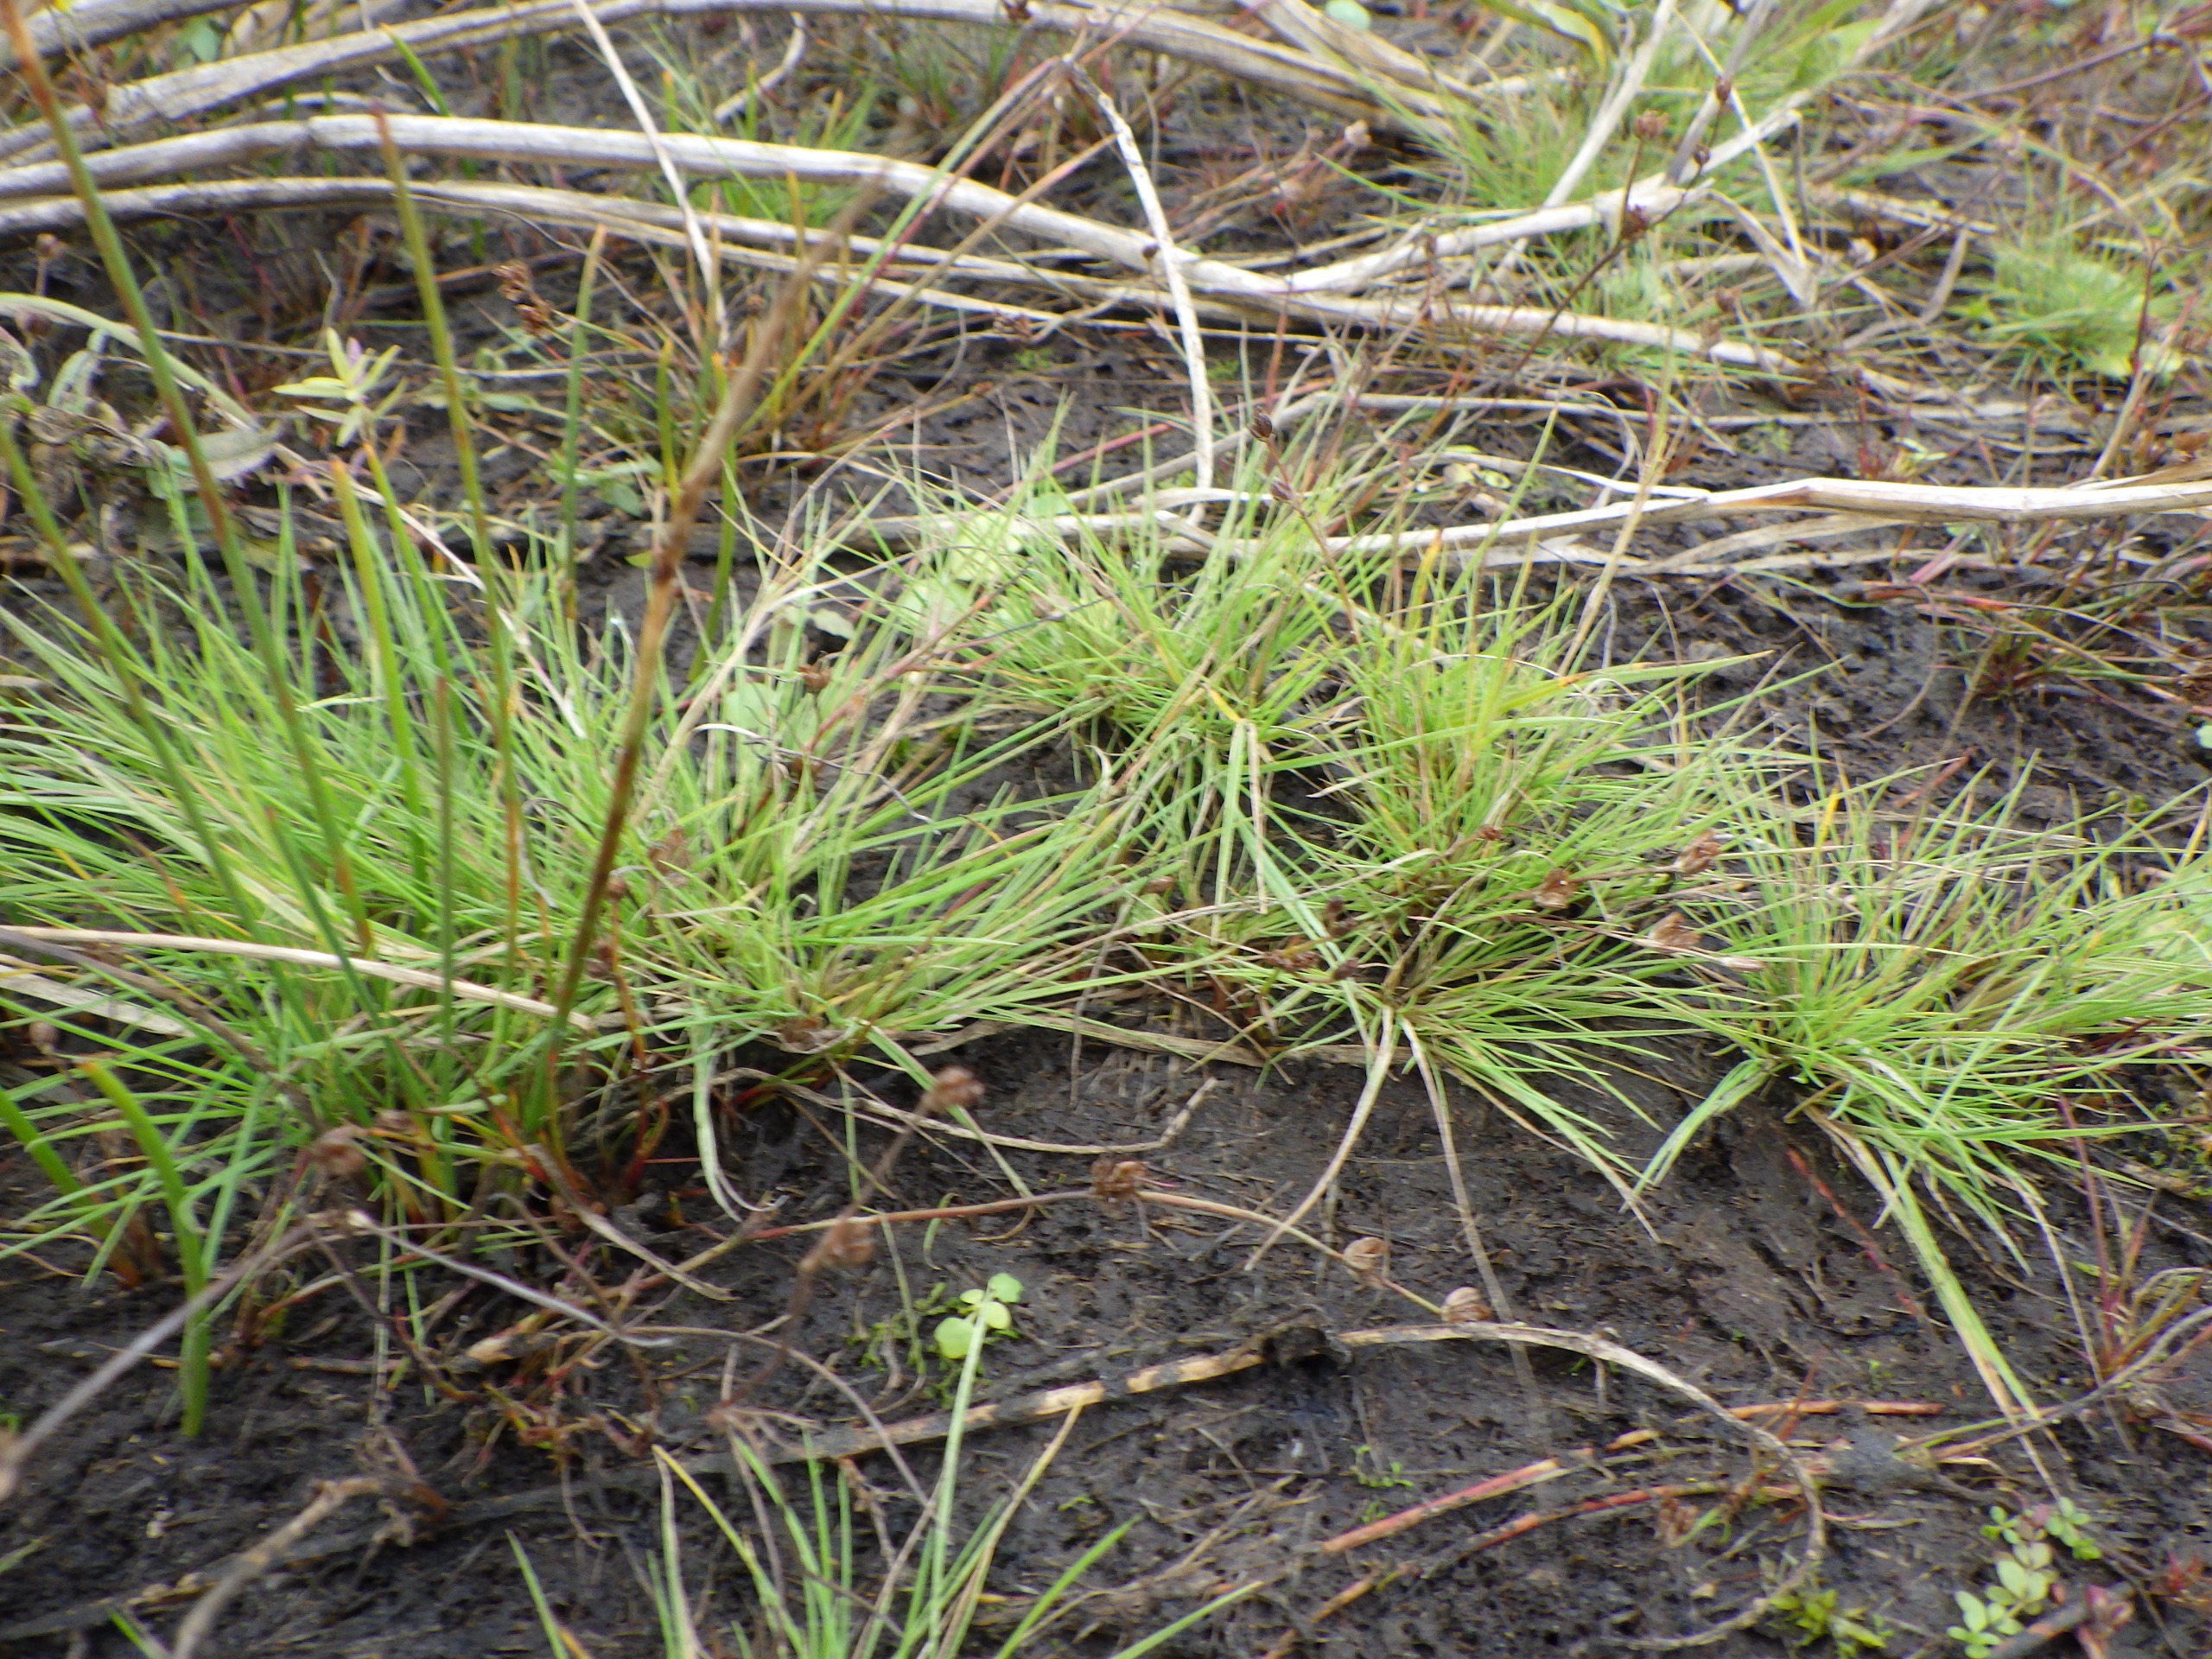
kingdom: Plantae
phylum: Tracheophyta
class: Liliopsida
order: Poales
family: Poaceae
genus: Deschampsia
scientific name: Deschampsia setacea
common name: Fin bunke
